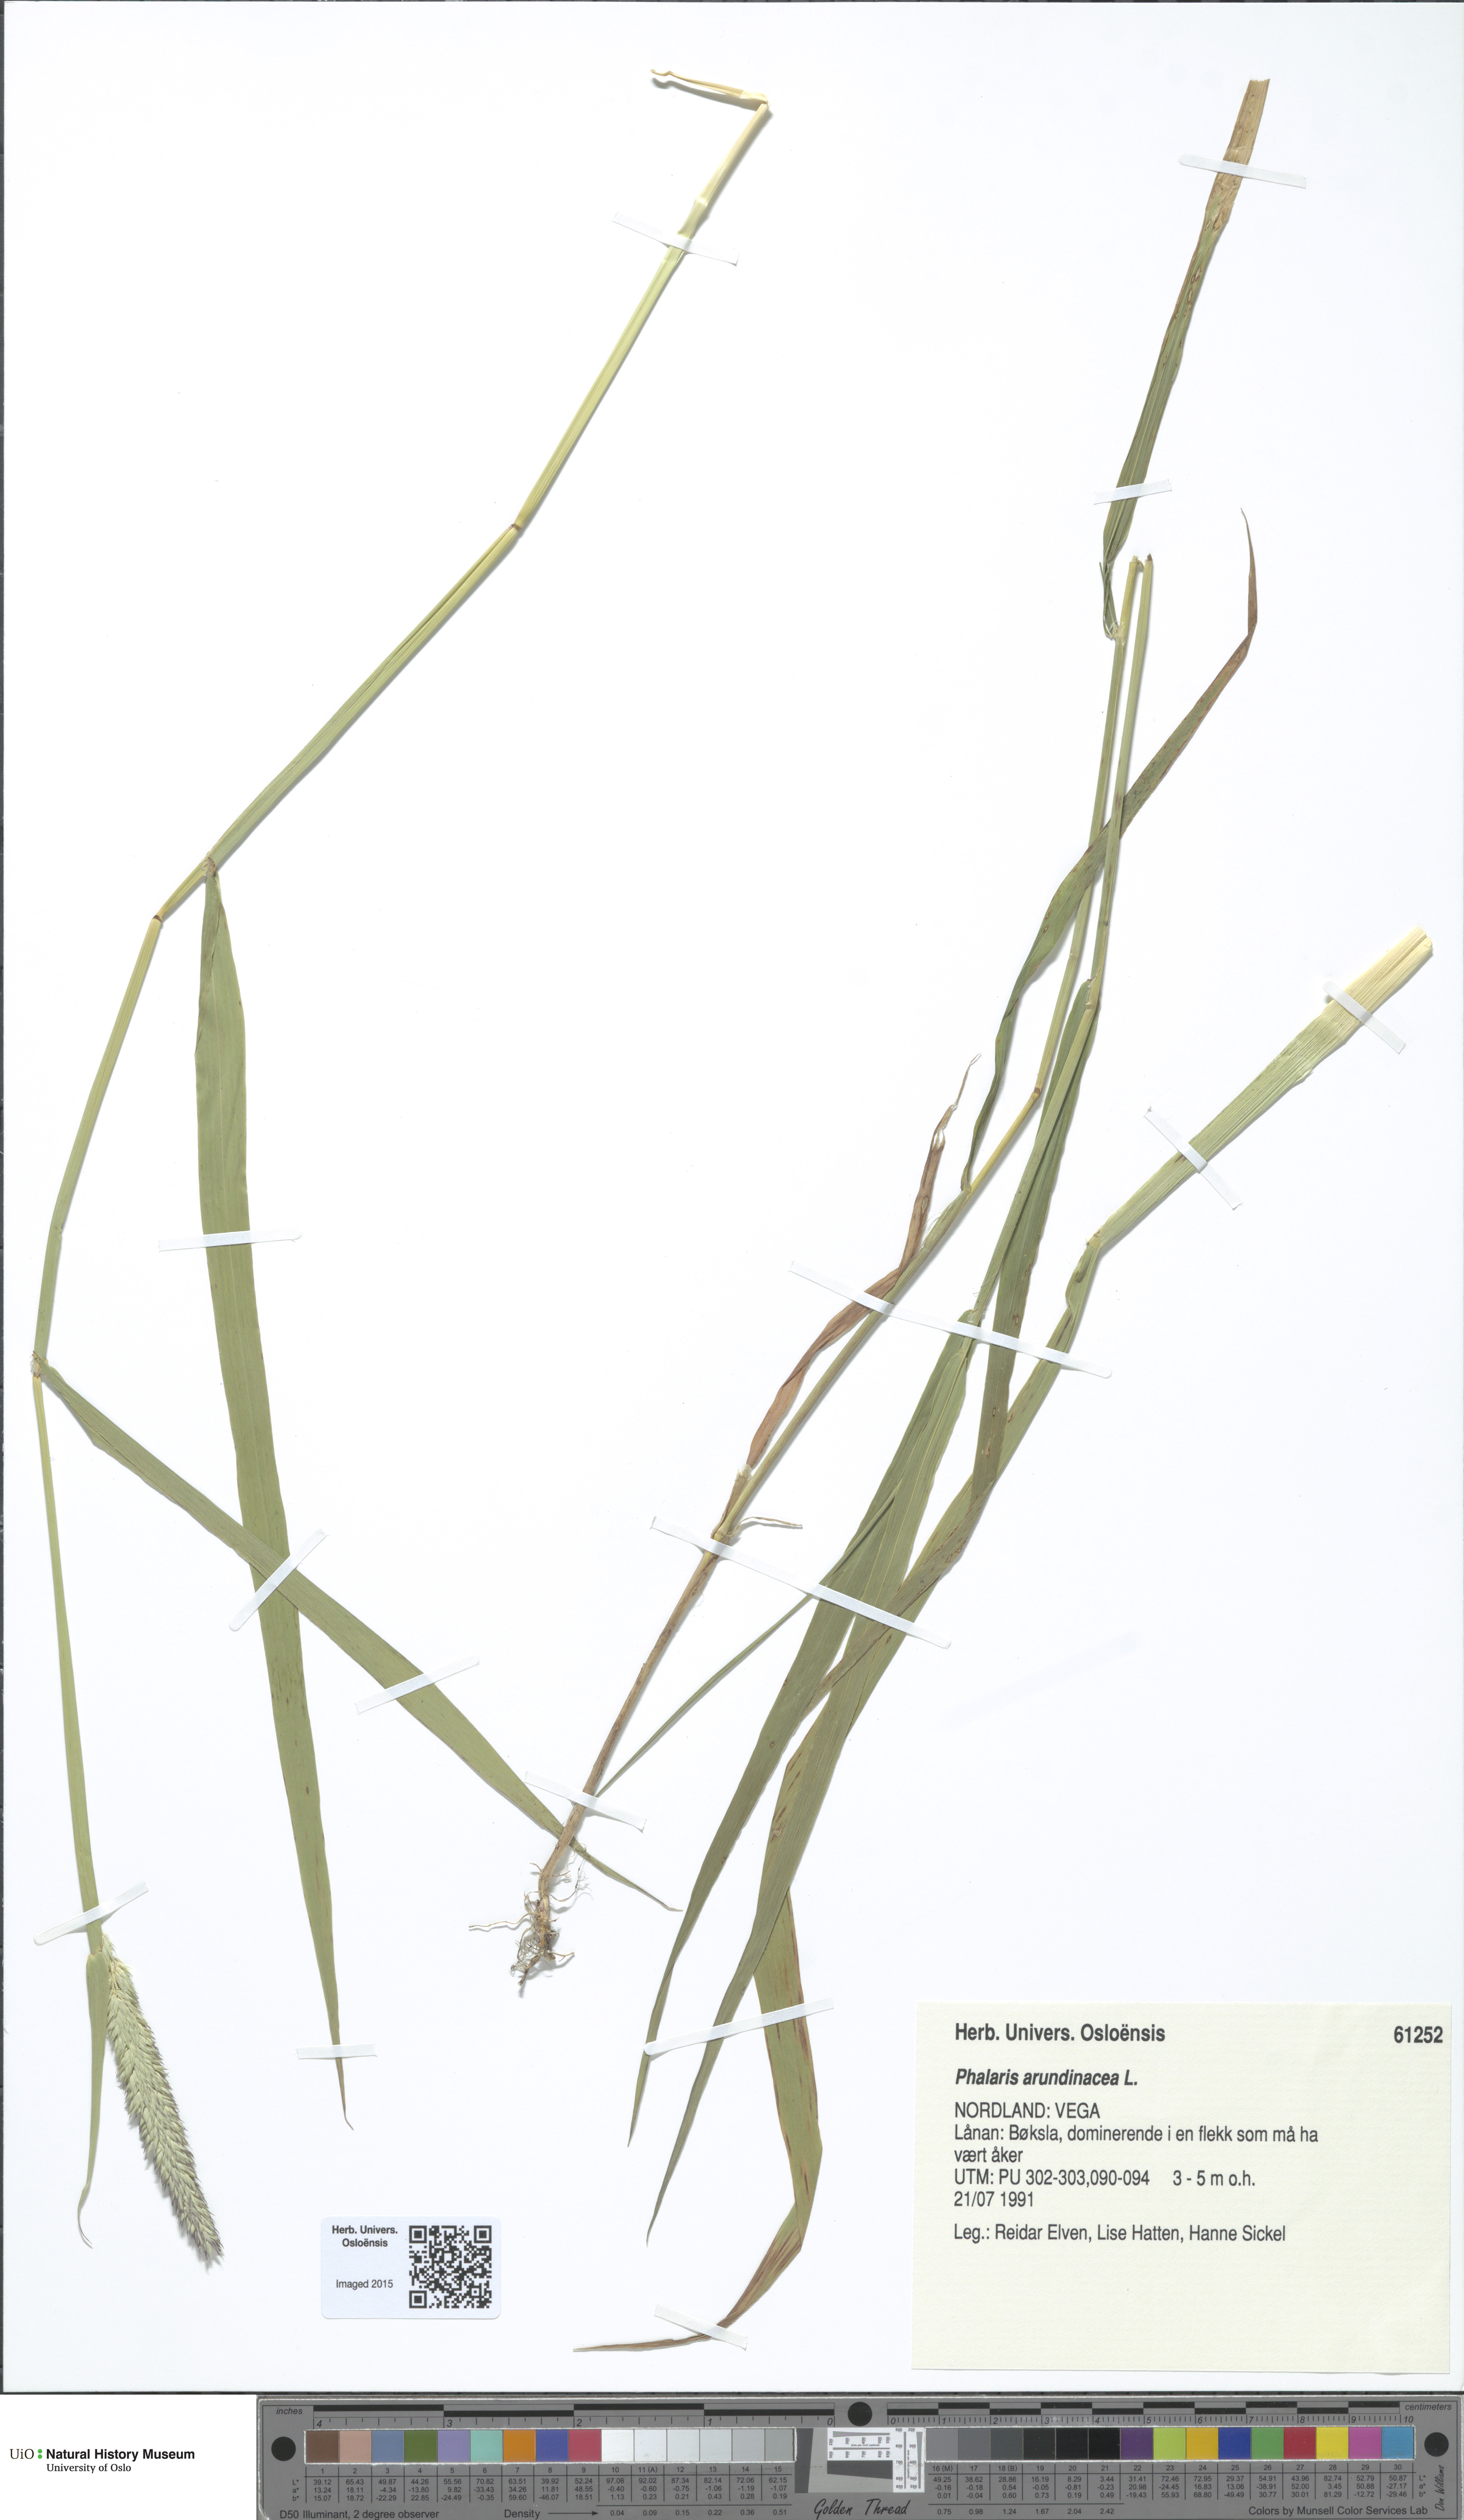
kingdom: Plantae
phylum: Tracheophyta
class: Liliopsida
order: Poales
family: Poaceae
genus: Phalaris
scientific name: Phalaris arundinacea
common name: Reed canary-grass
